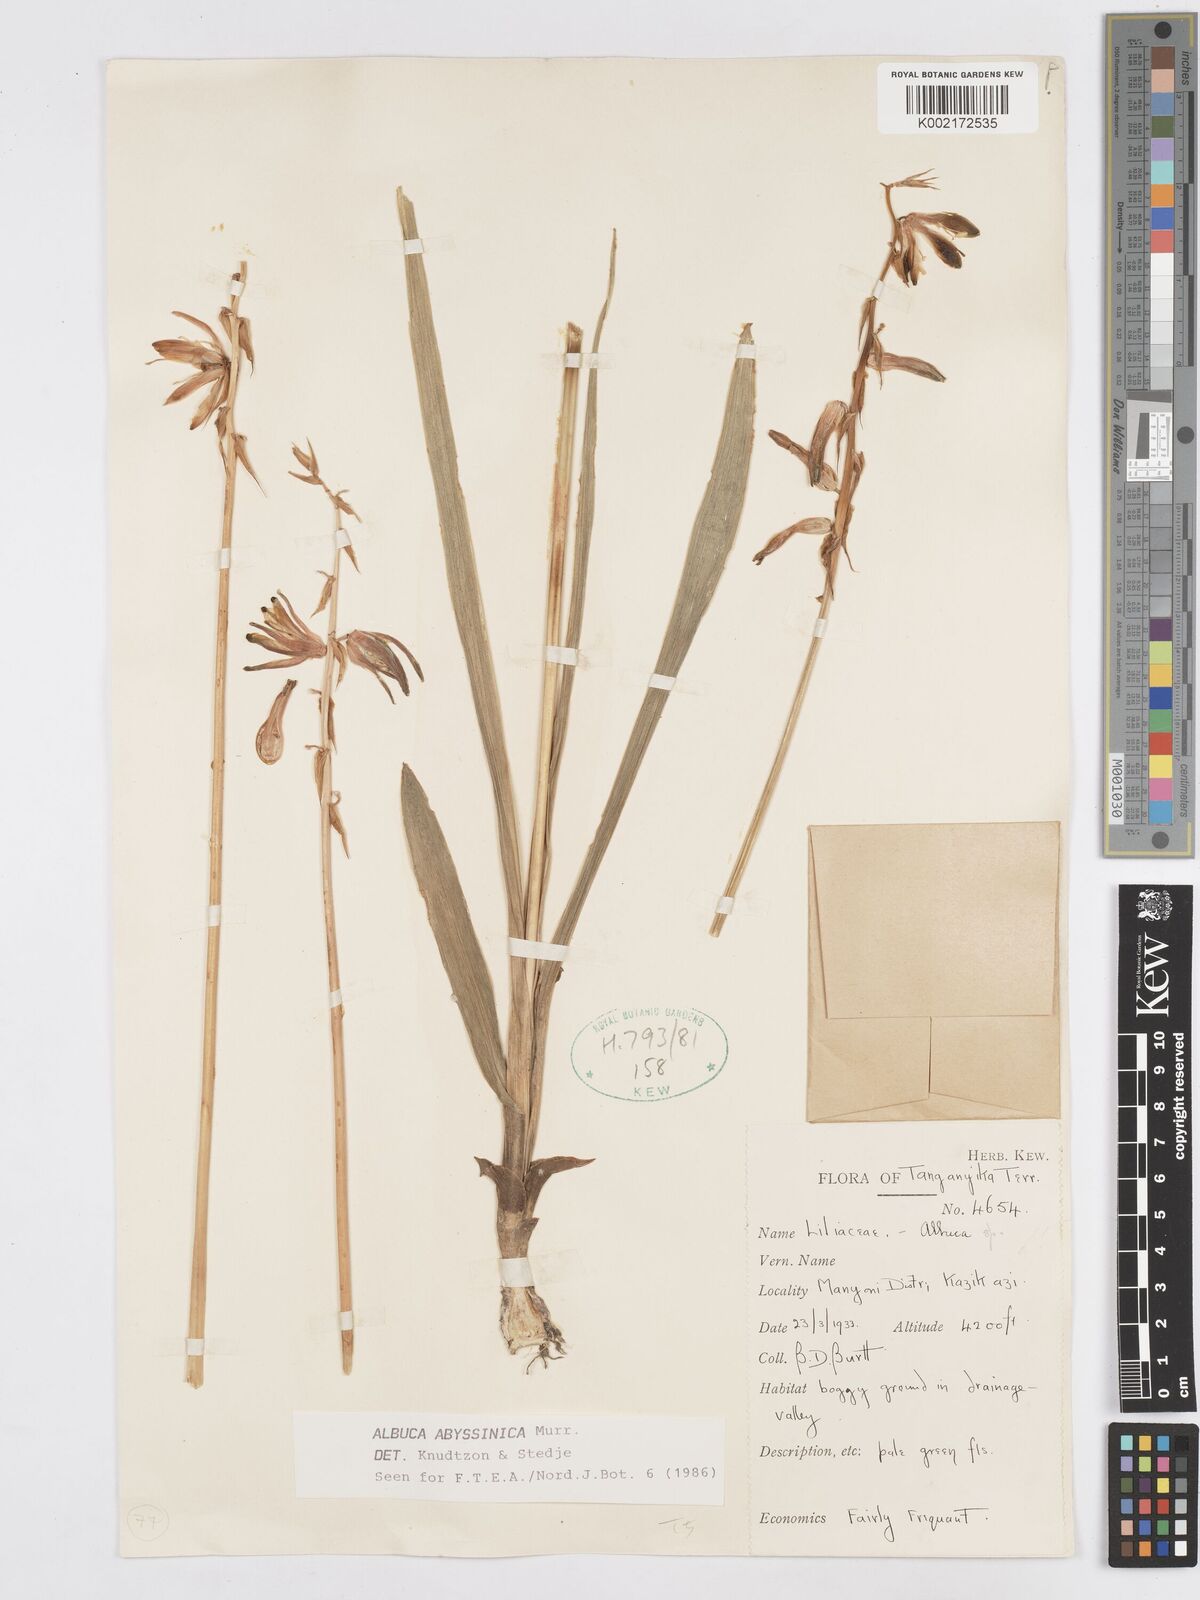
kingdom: Plantae
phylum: Tracheophyta
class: Liliopsida
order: Asparagales
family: Asparagaceae
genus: Albuca
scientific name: Albuca abyssinica
